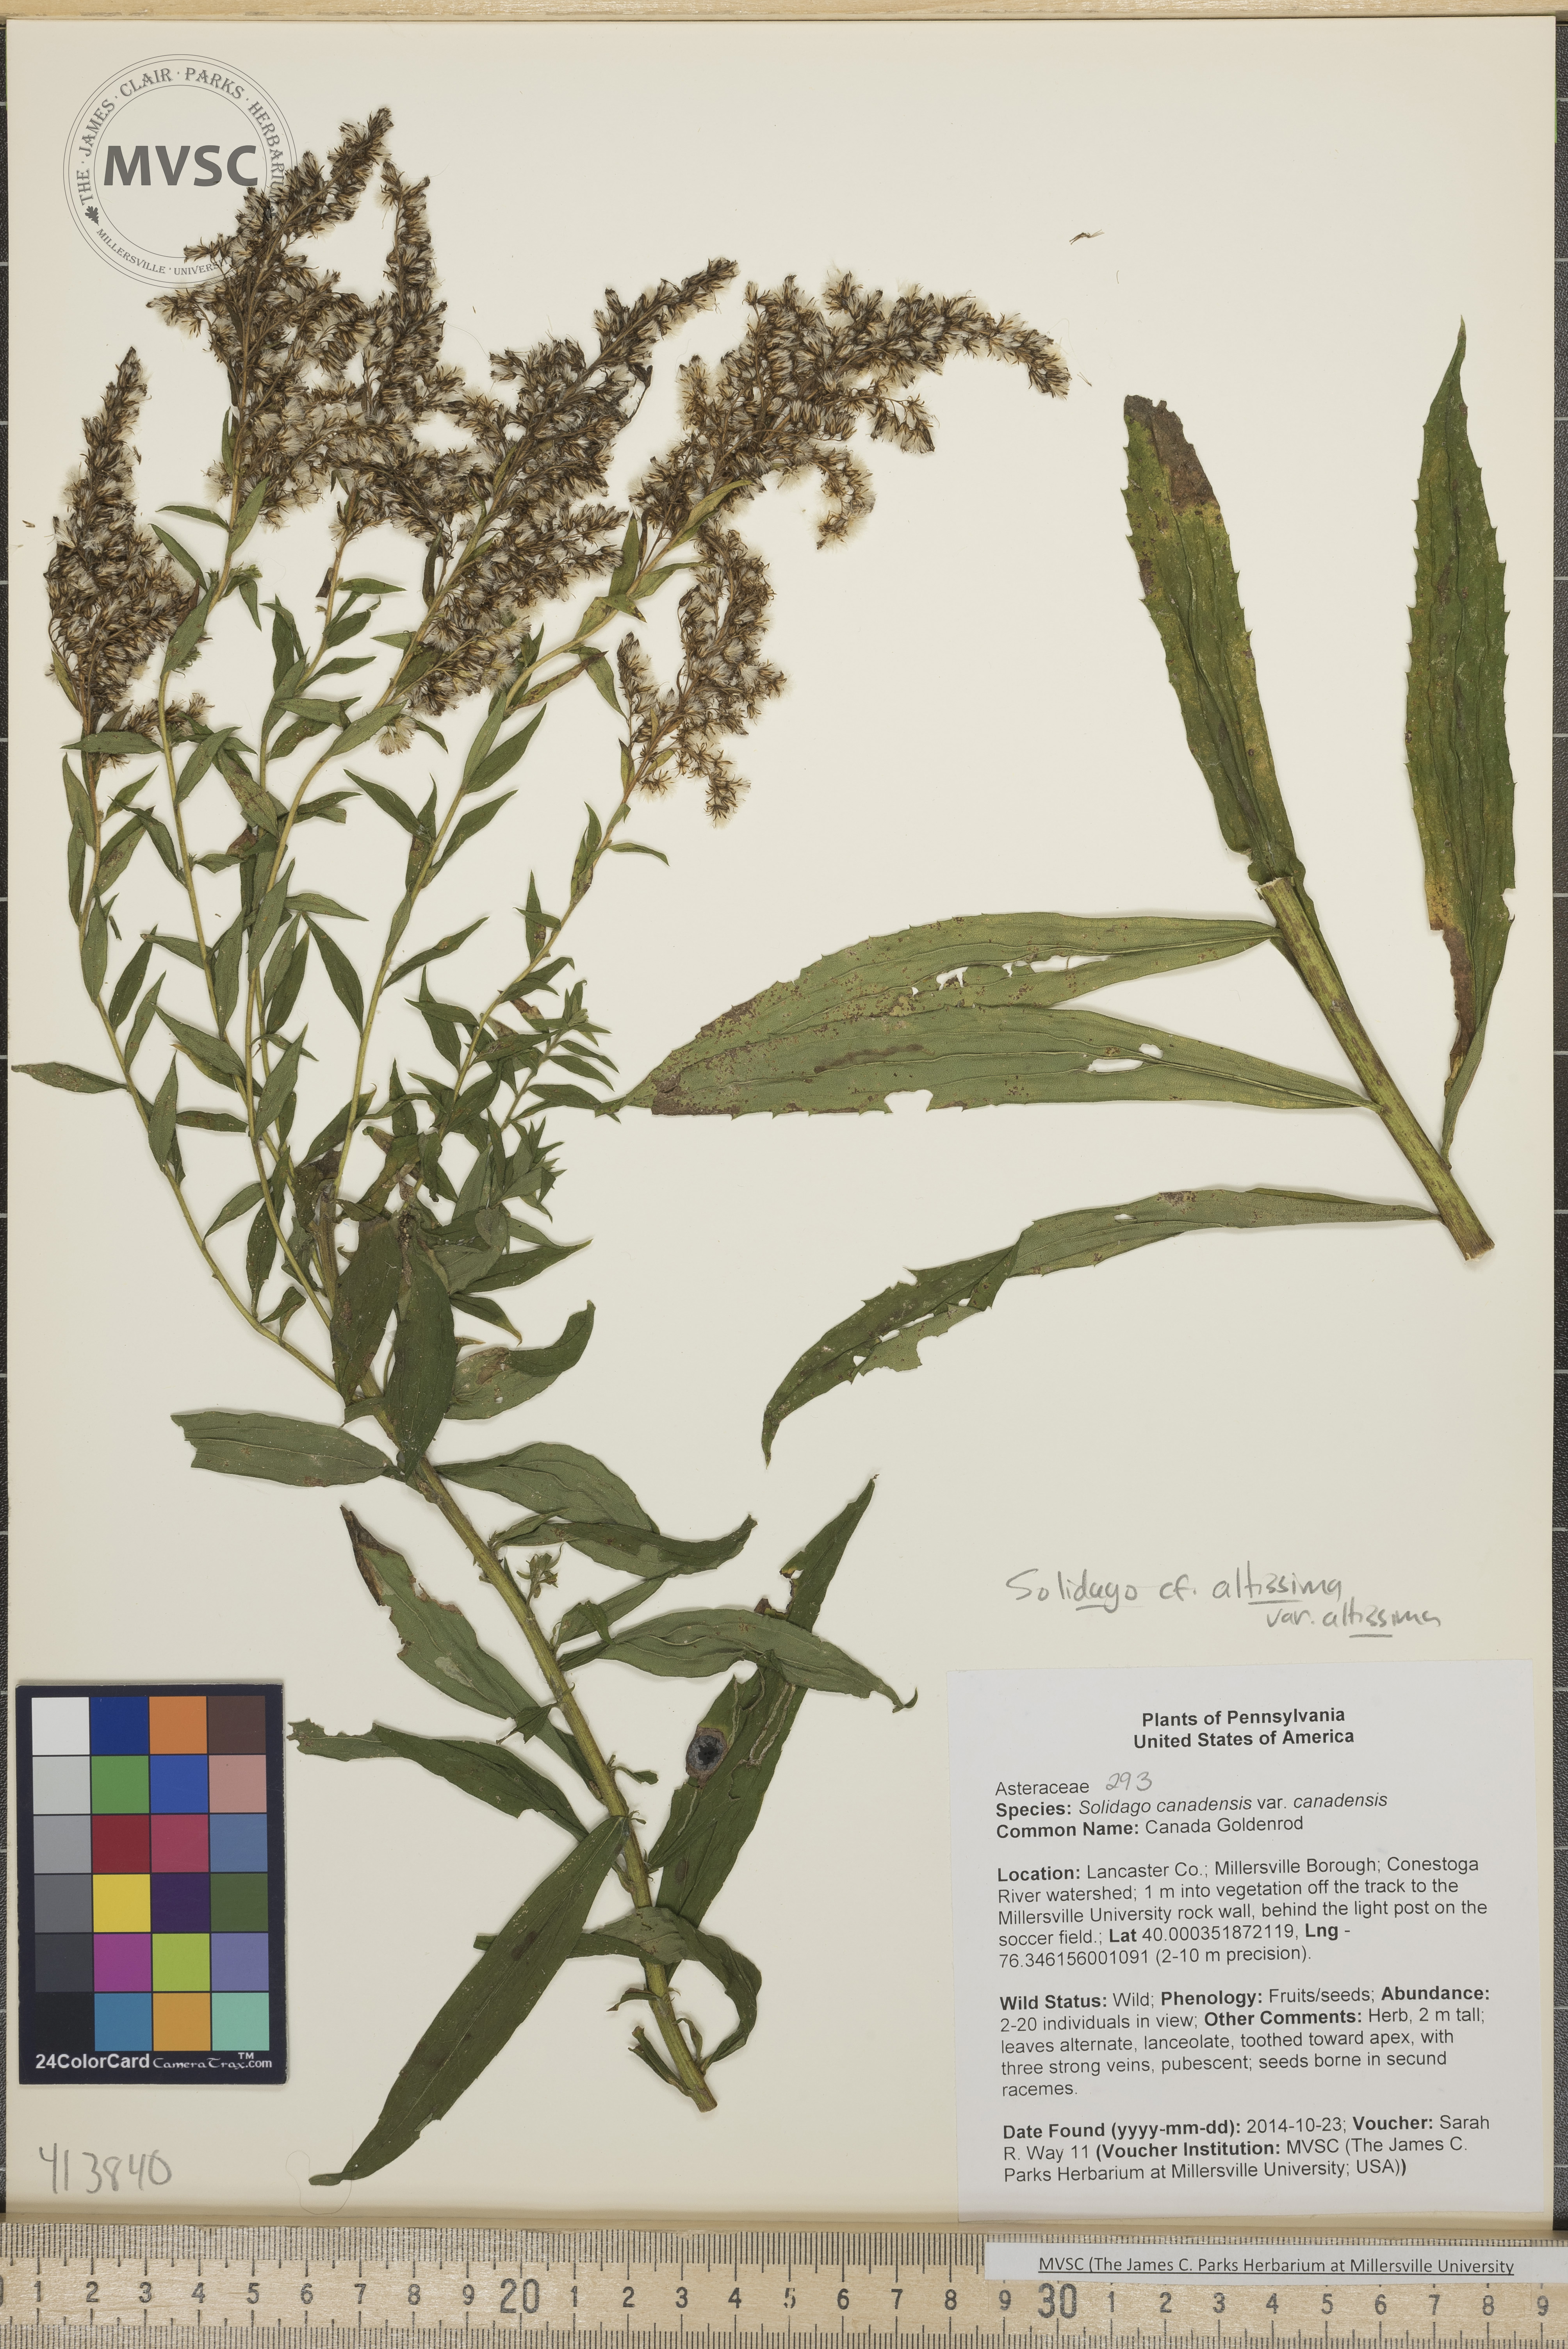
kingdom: Plantae
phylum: Tracheophyta
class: Magnoliopsida
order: Asterales
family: Asteraceae
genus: Solidago
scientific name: Solidago altissima
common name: Late Goldenrod
